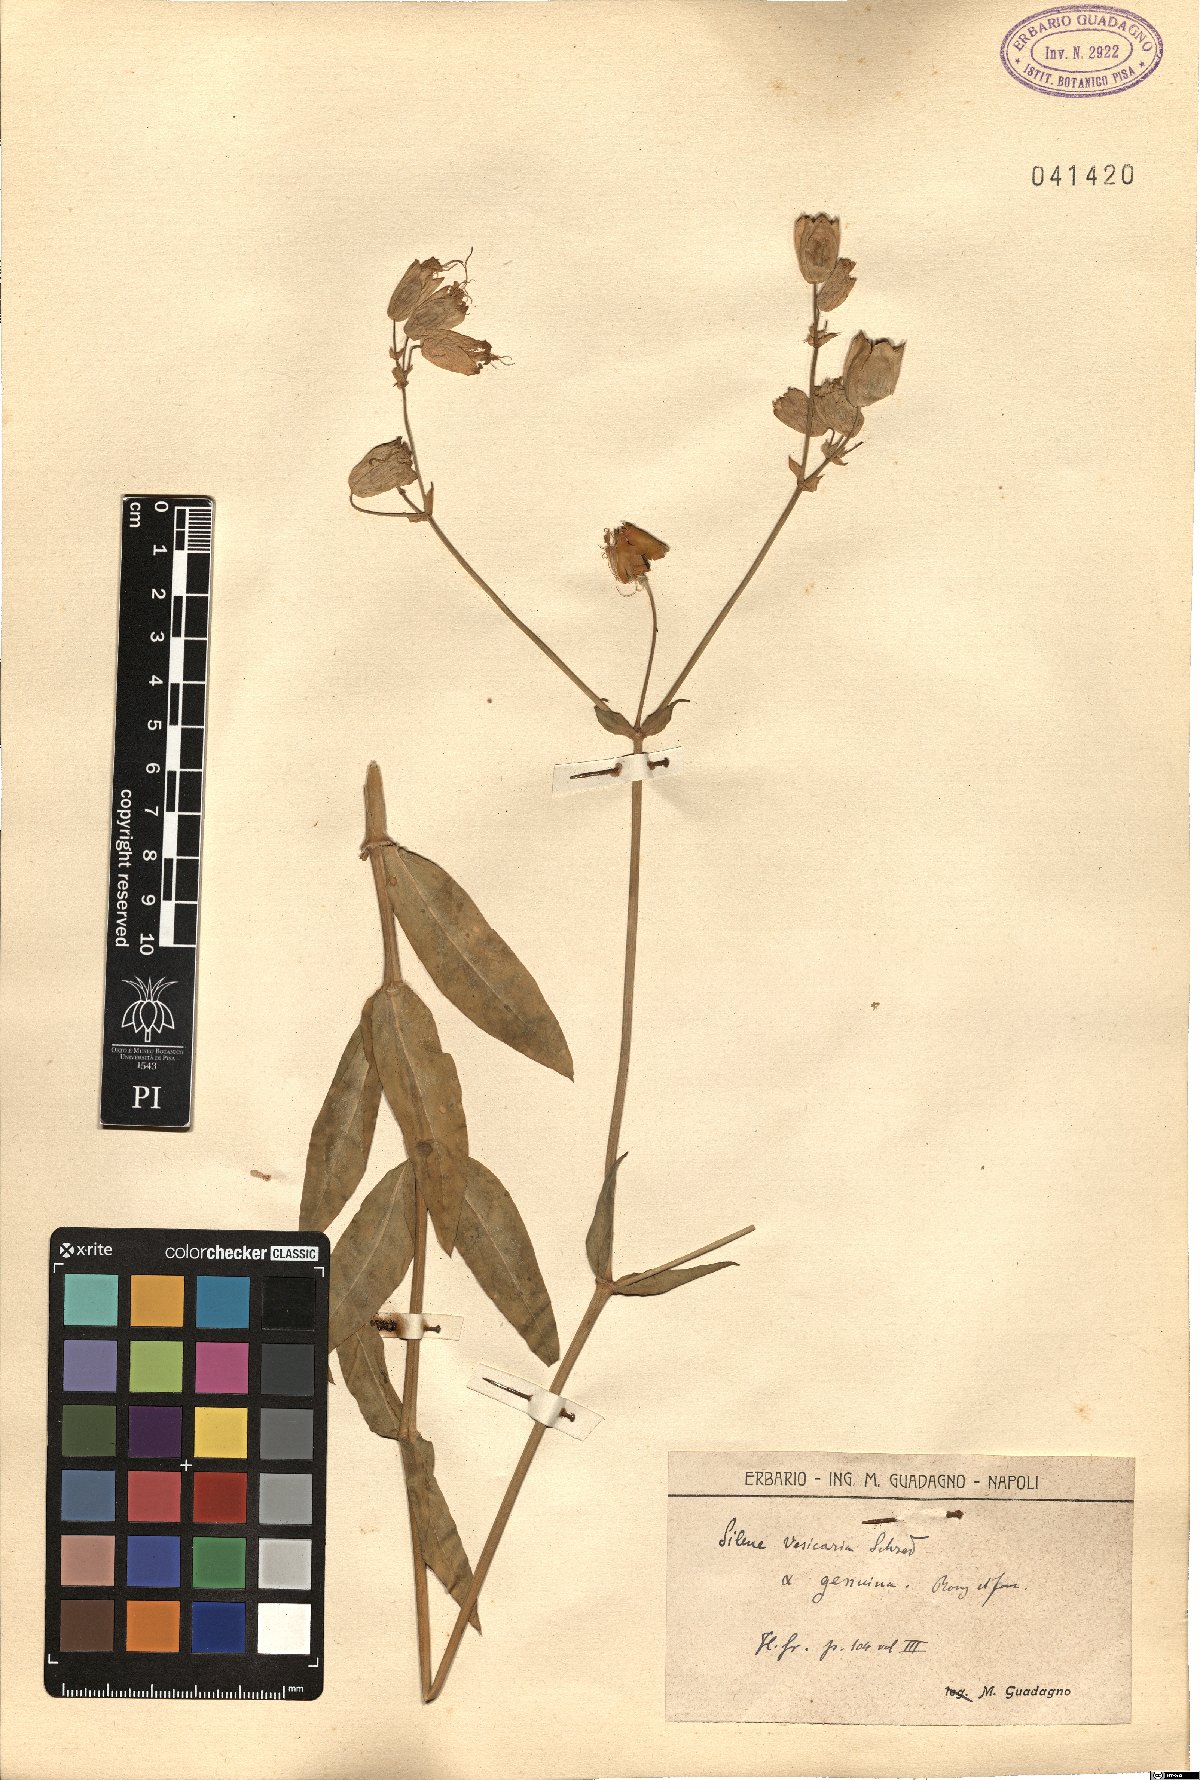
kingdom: Plantae
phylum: Tracheophyta
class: Magnoliopsida
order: Caryophyllales
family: Caryophyllaceae
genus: Silene
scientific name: Silene vulgaris
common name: Bladder campion
